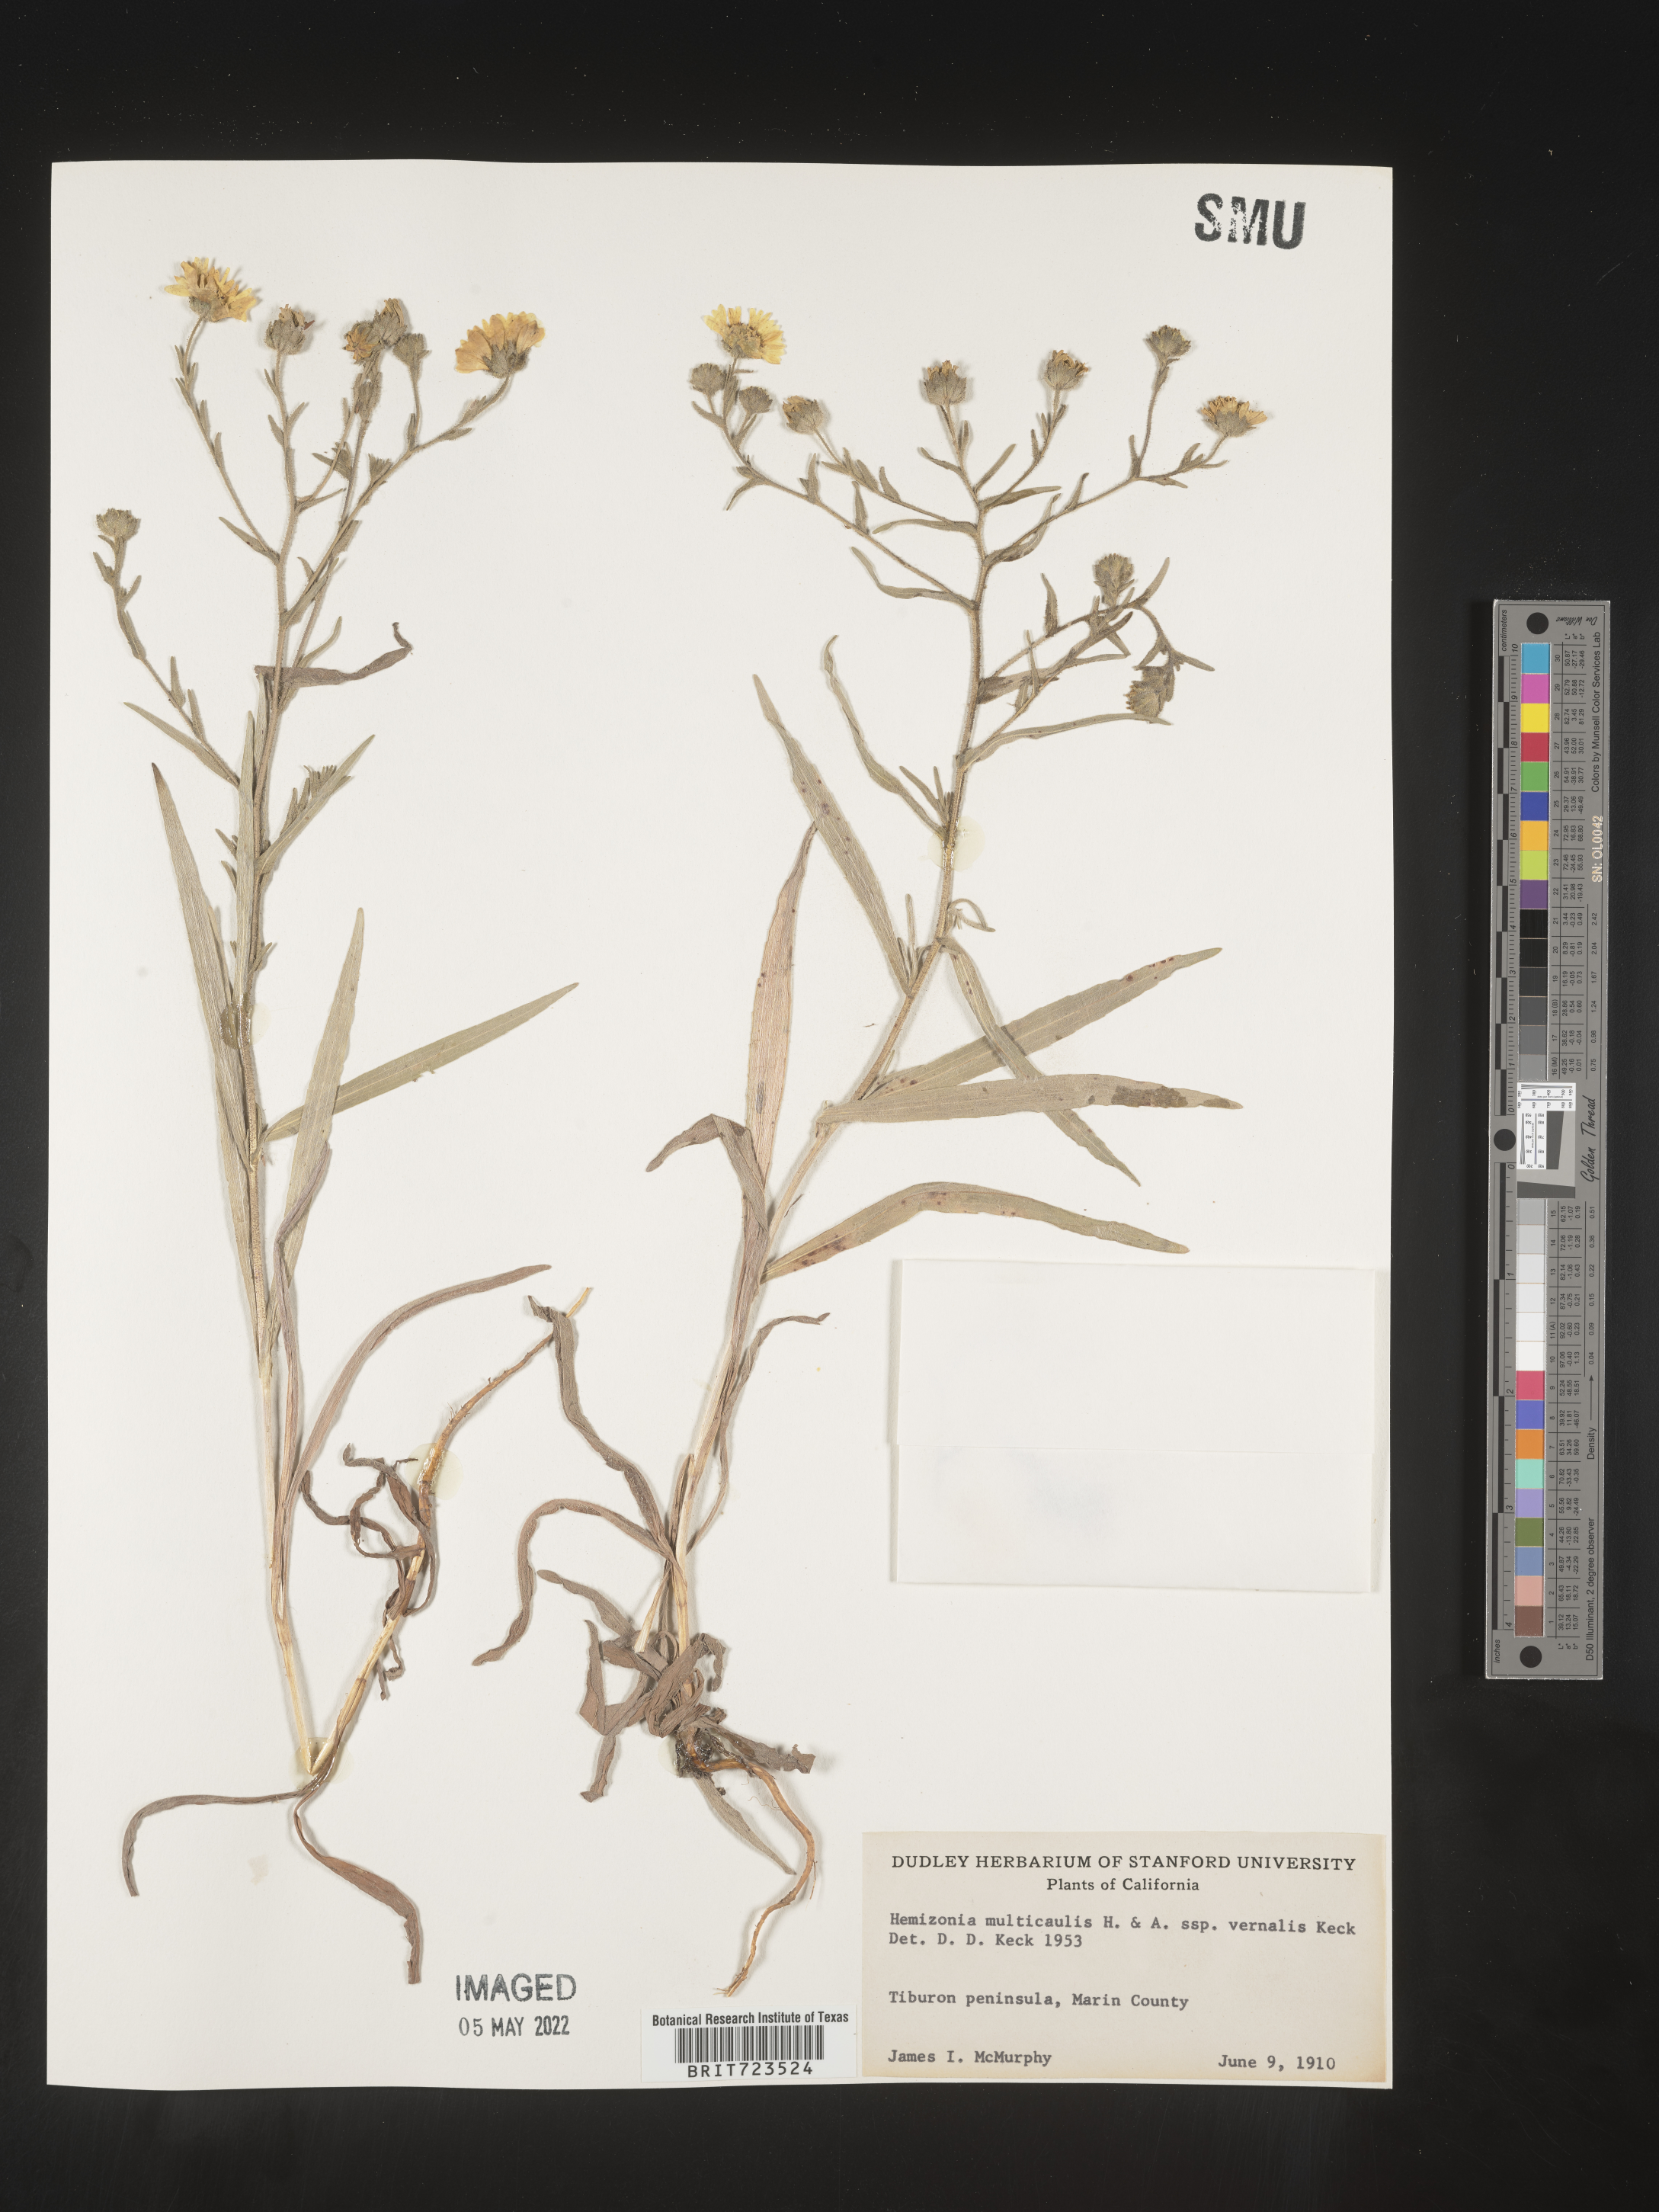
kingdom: Plantae
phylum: Tracheophyta
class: Magnoliopsida
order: Asterales
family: Asteraceae
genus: Hemizonia
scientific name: Hemizonia
